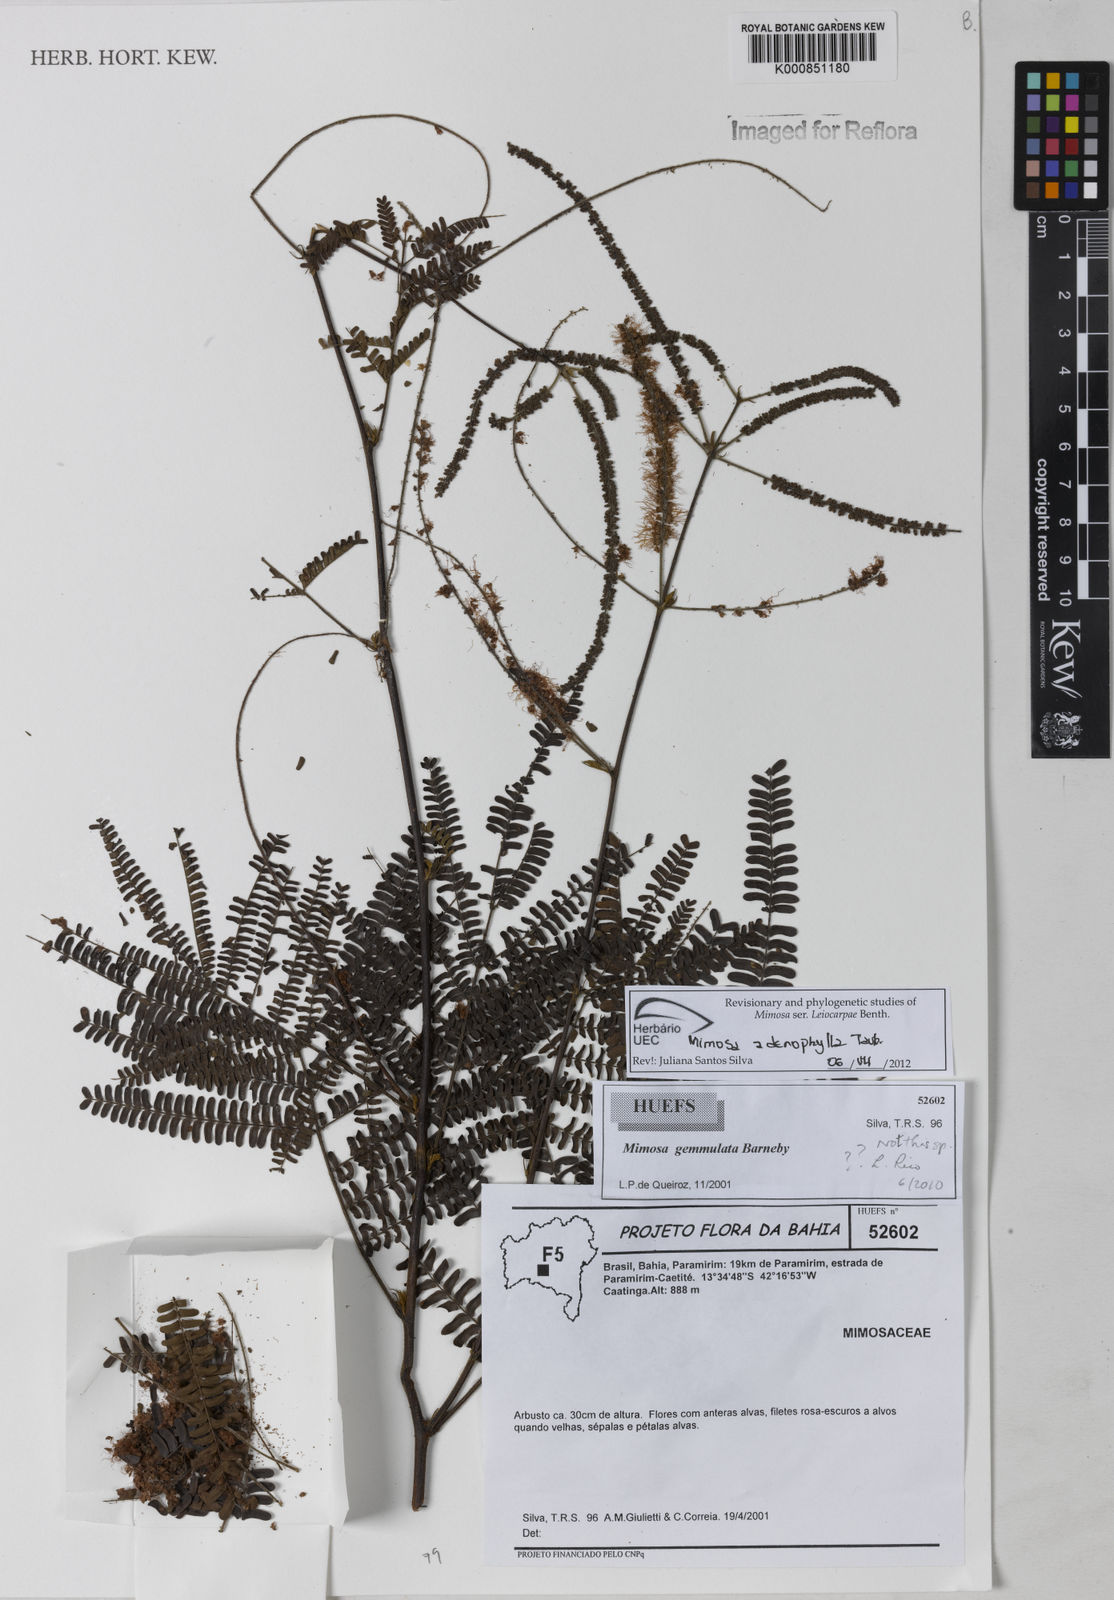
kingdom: Plantae
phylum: Tracheophyta
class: Magnoliopsida
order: Fabales
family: Fabaceae
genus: Mimosa
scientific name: Mimosa pteridifolia
